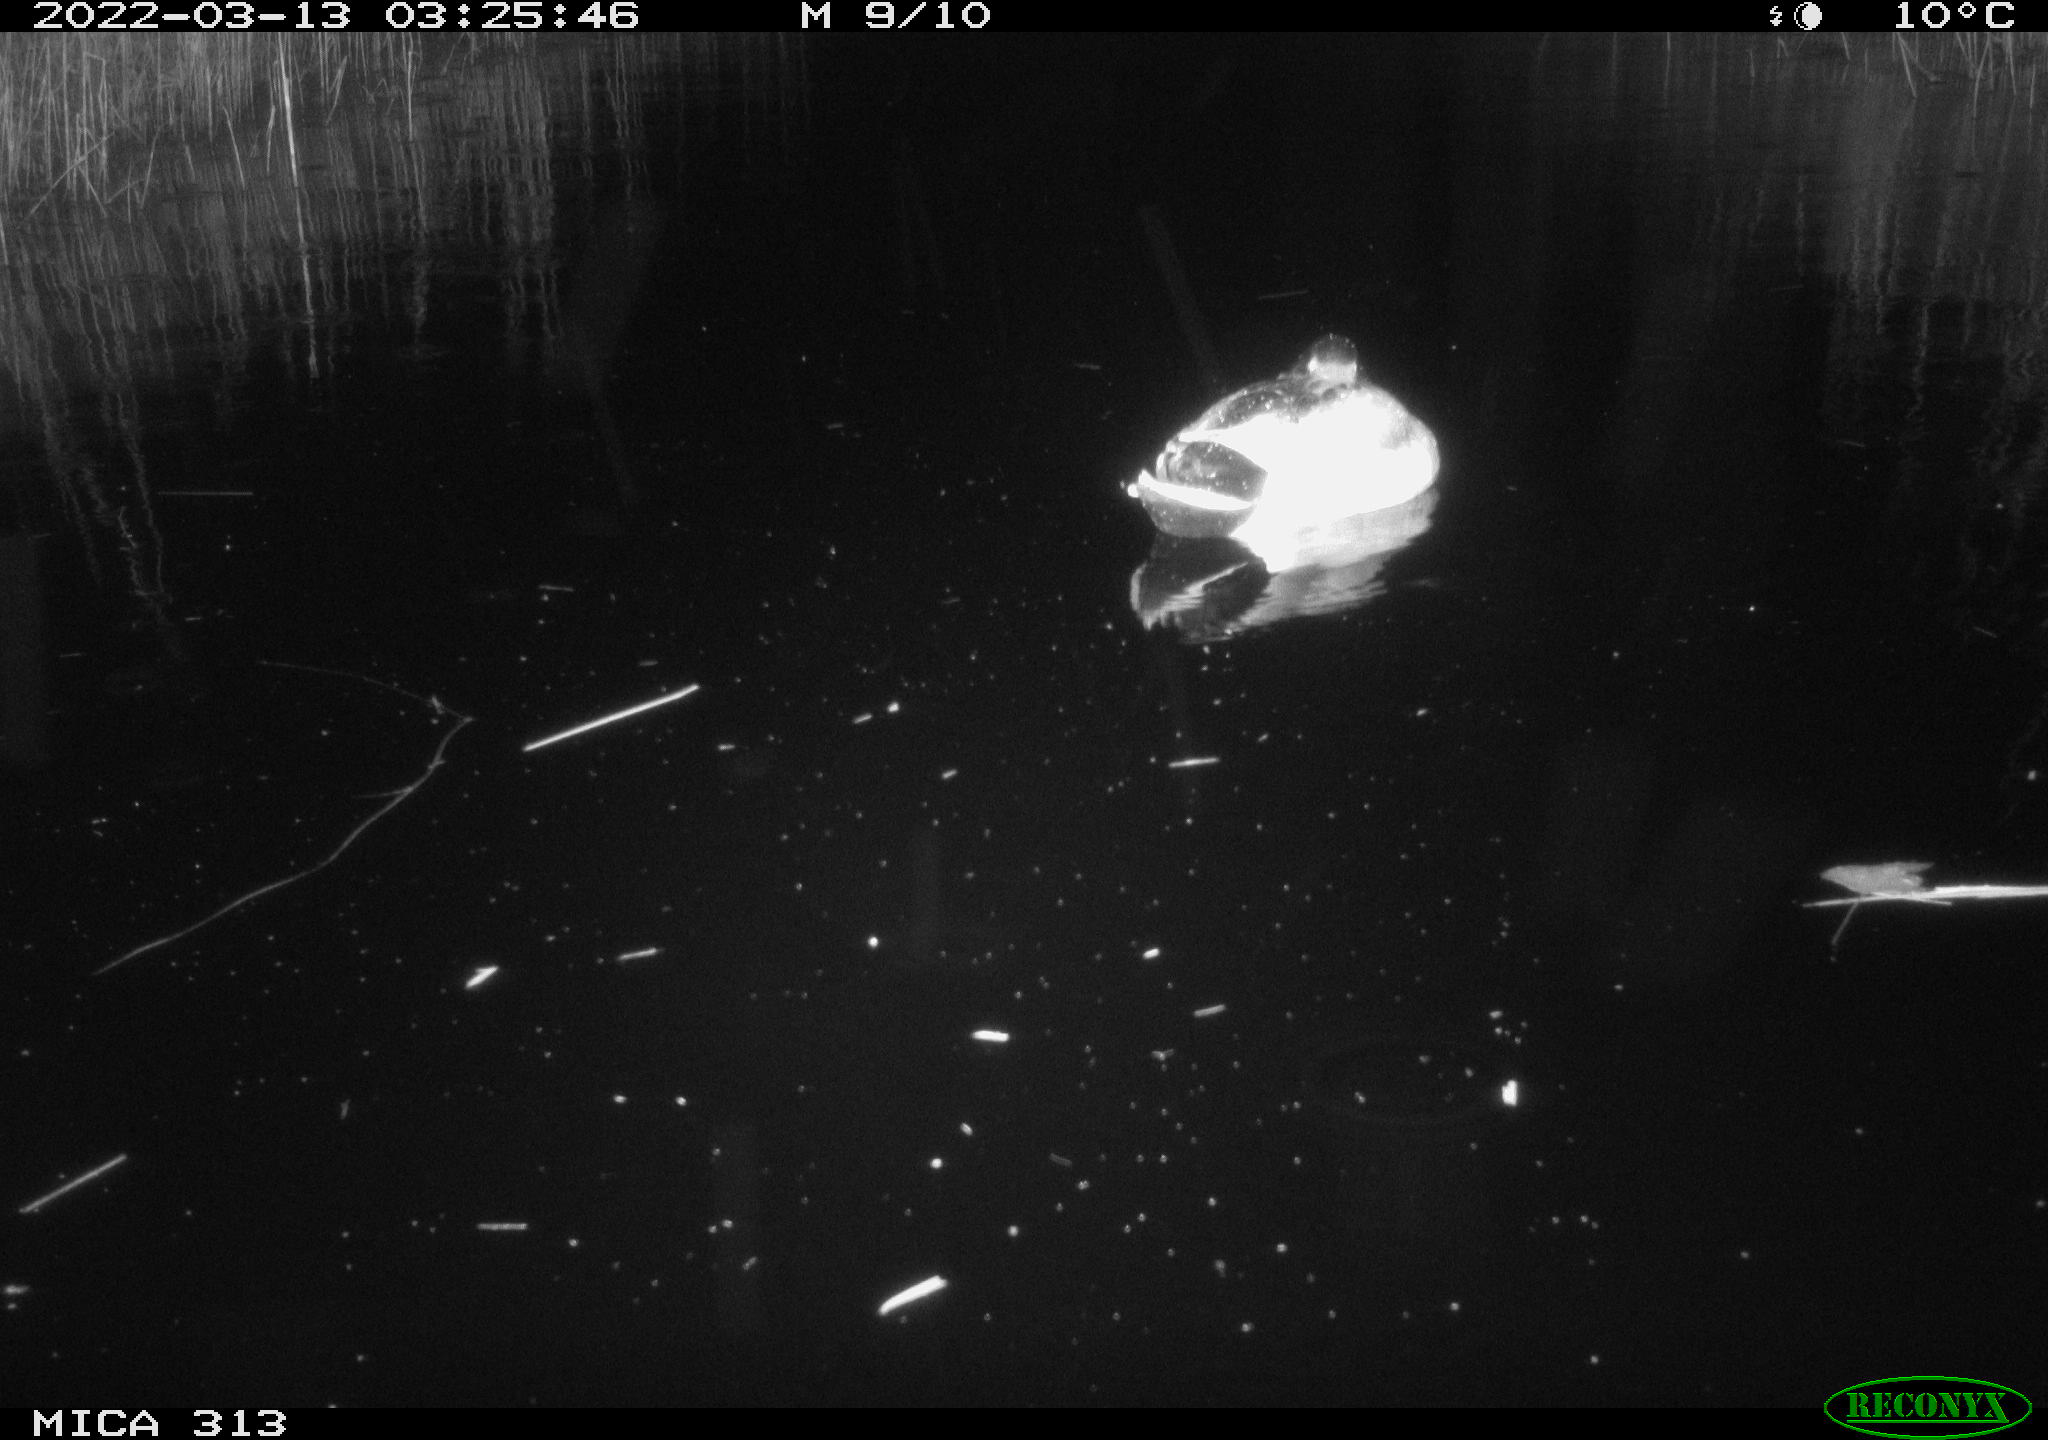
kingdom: Animalia
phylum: Chordata
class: Aves
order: Anseriformes
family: Anatidae
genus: Anas
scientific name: Anas platyrhynchos
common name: Mallard
